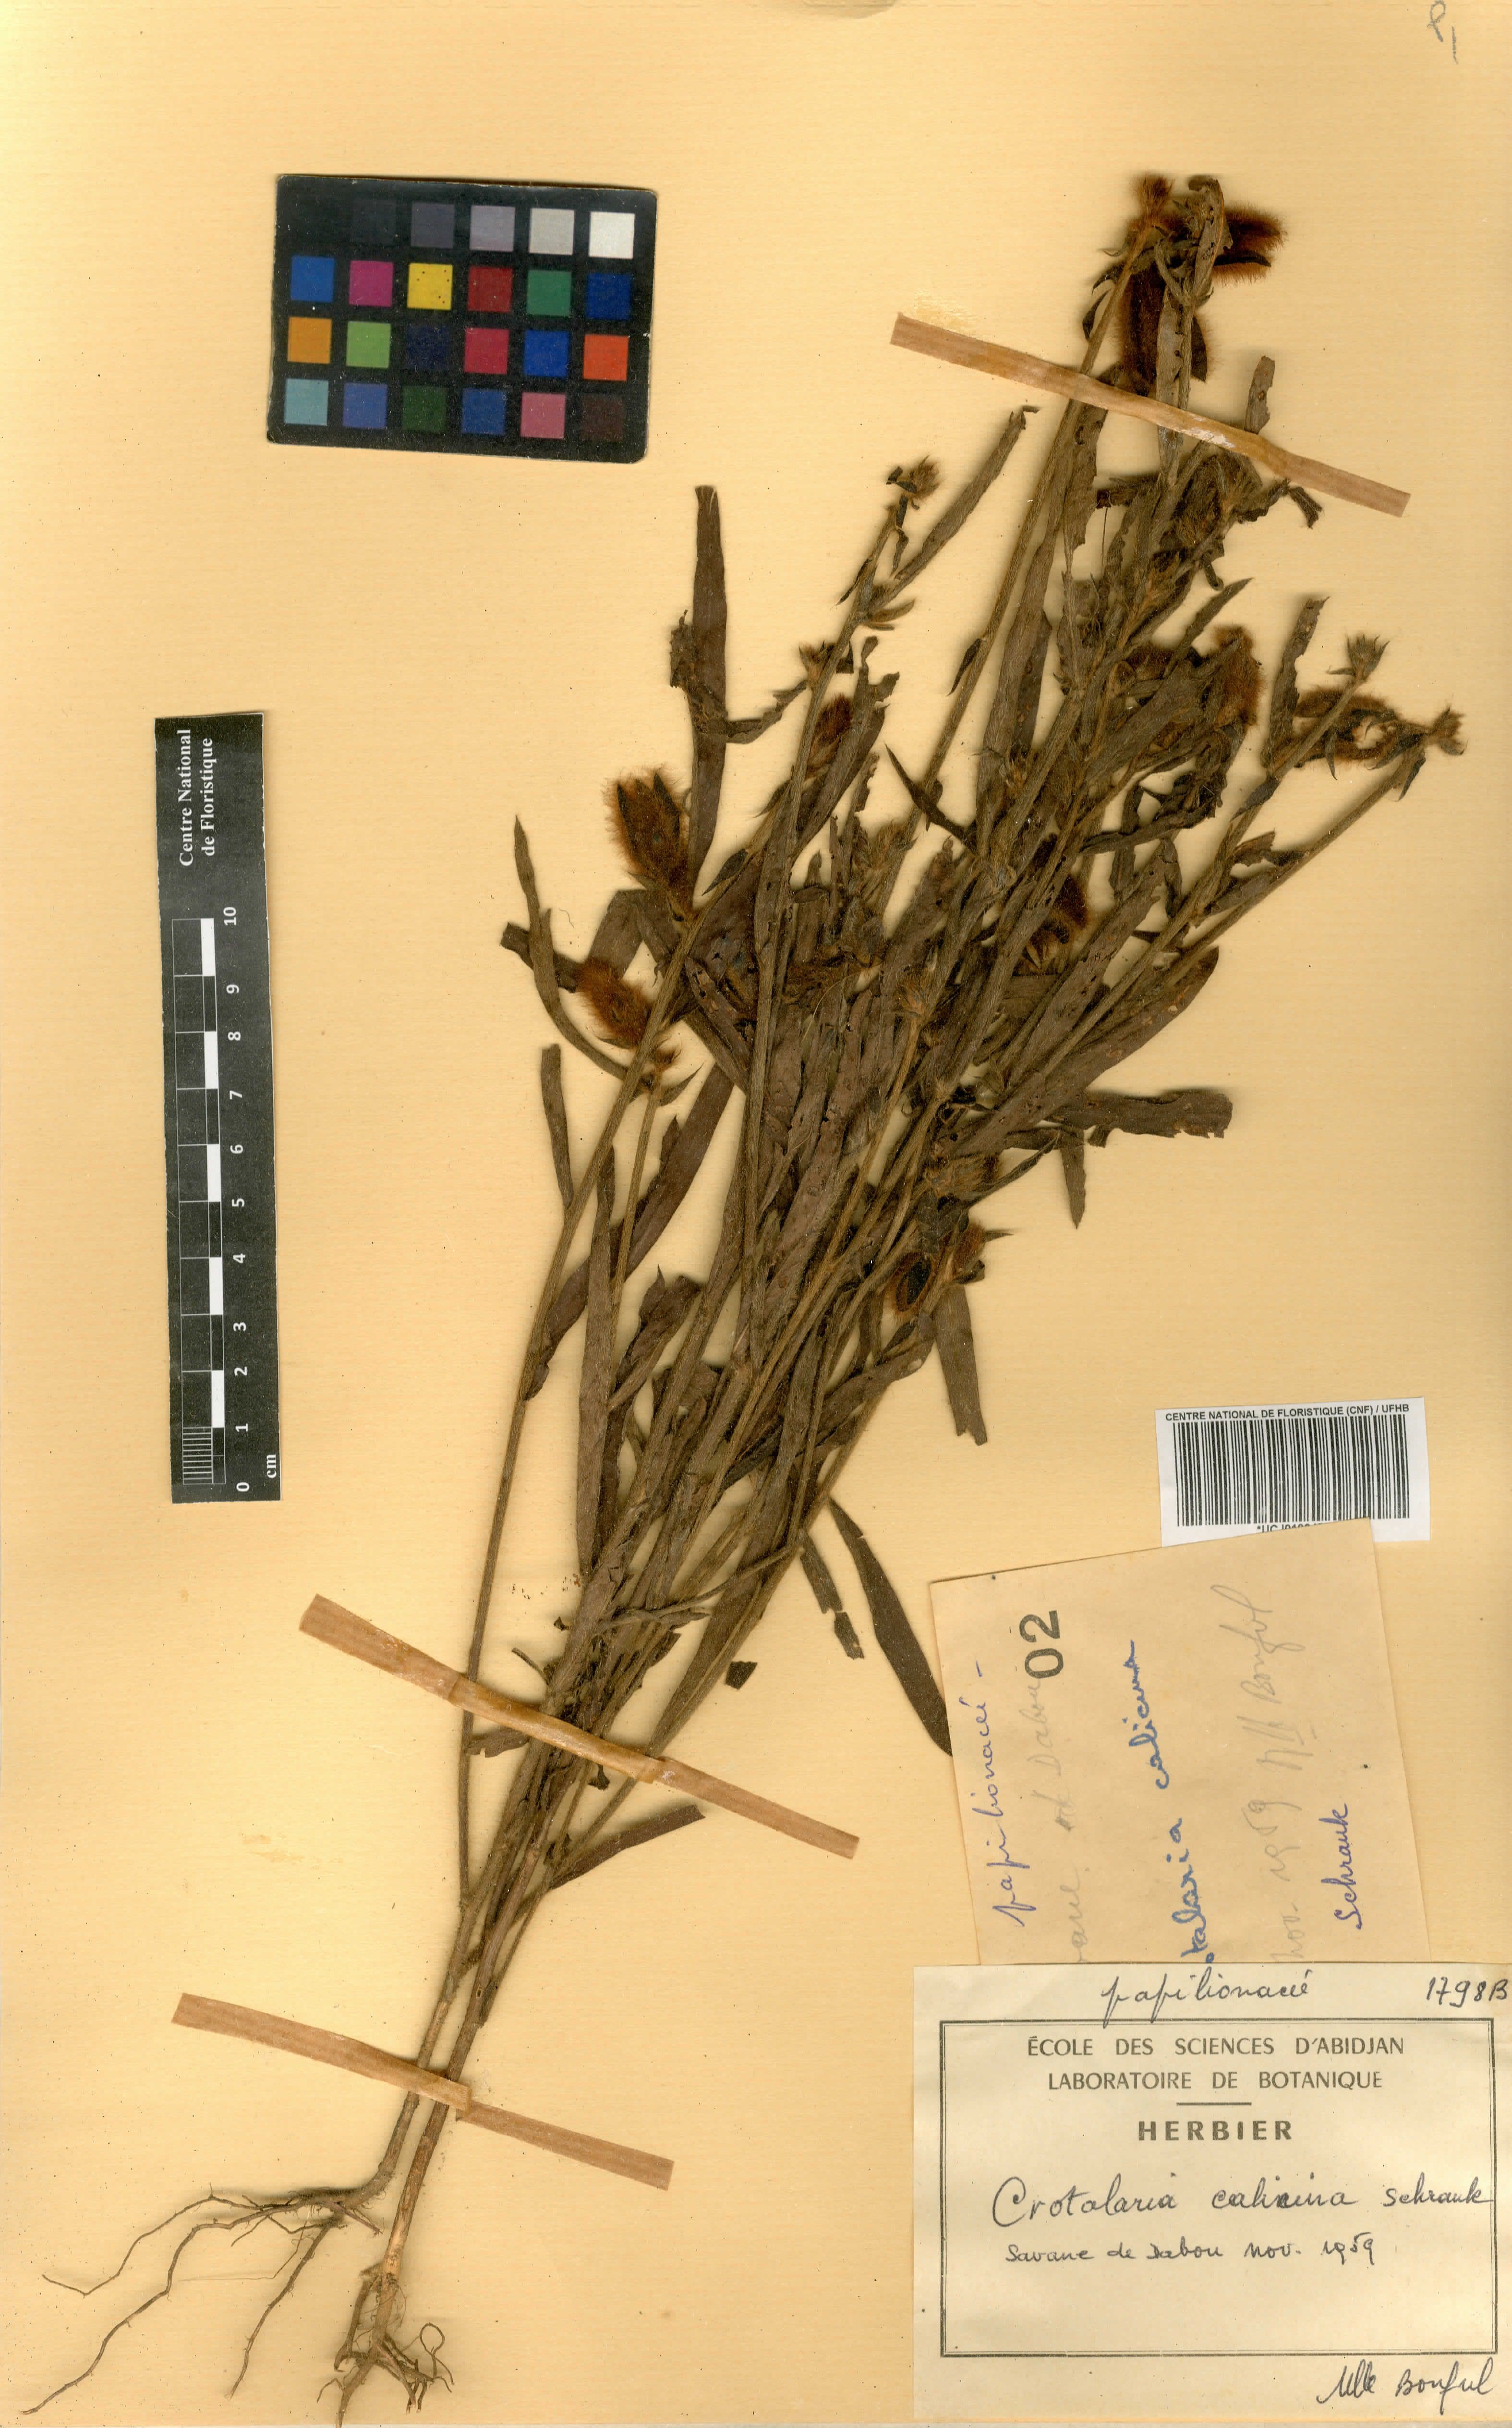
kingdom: Plantae
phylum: Tracheophyta
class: Magnoliopsida
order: Fabales
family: Fabaceae
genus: Crotalaria
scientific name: Crotalaria calycina
